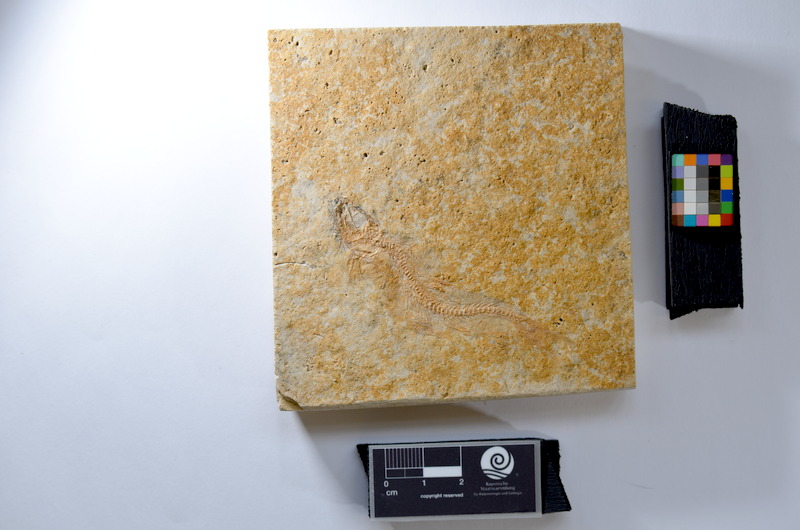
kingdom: Animalia
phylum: Chordata
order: Salmoniformes
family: Orthogonikleithridae
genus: Leptolepides
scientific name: Leptolepides
